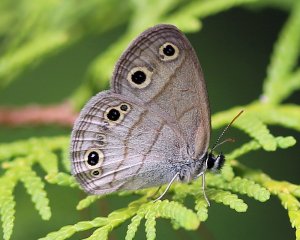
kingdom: Animalia
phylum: Arthropoda
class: Insecta
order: Lepidoptera
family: Nymphalidae
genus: Euptychia
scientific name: Euptychia cymela
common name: Little Wood Satyr
